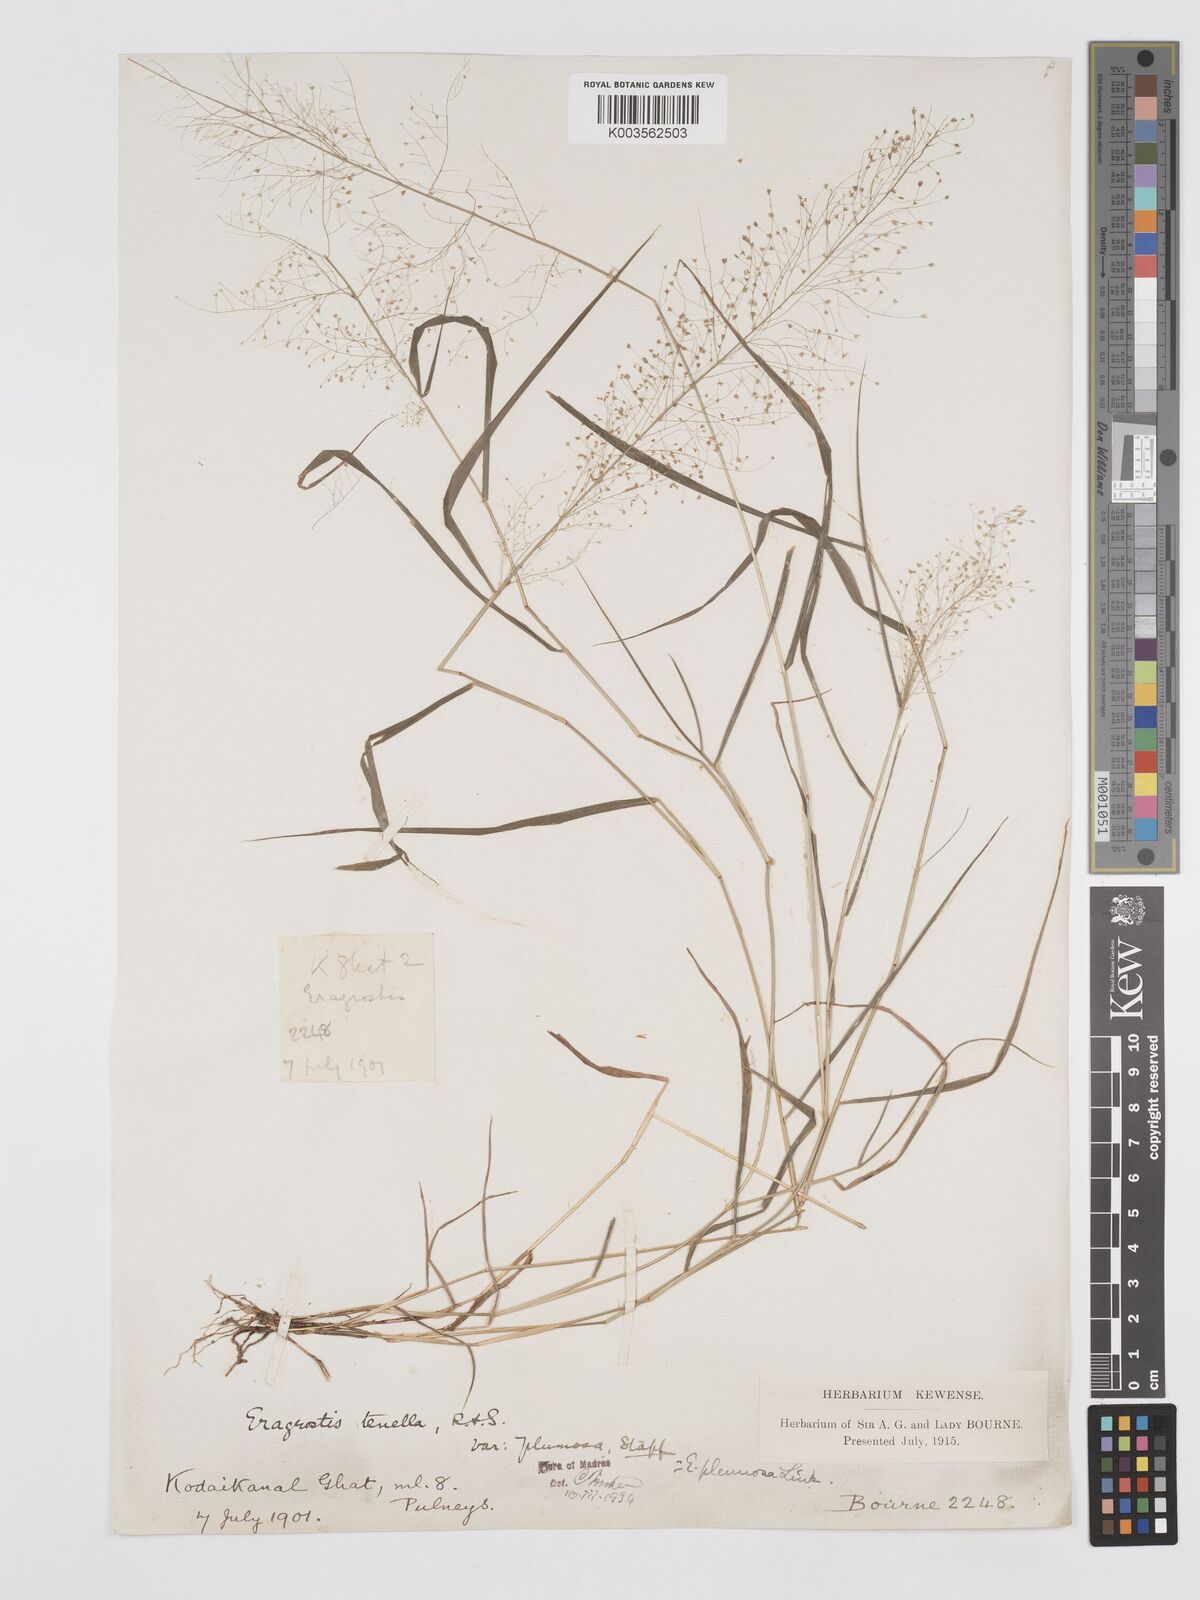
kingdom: Plantae
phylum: Tracheophyta
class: Liliopsida
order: Poales
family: Poaceae
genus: Eragrostis
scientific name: Eragrostis tenella
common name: Japanese lovegrass
